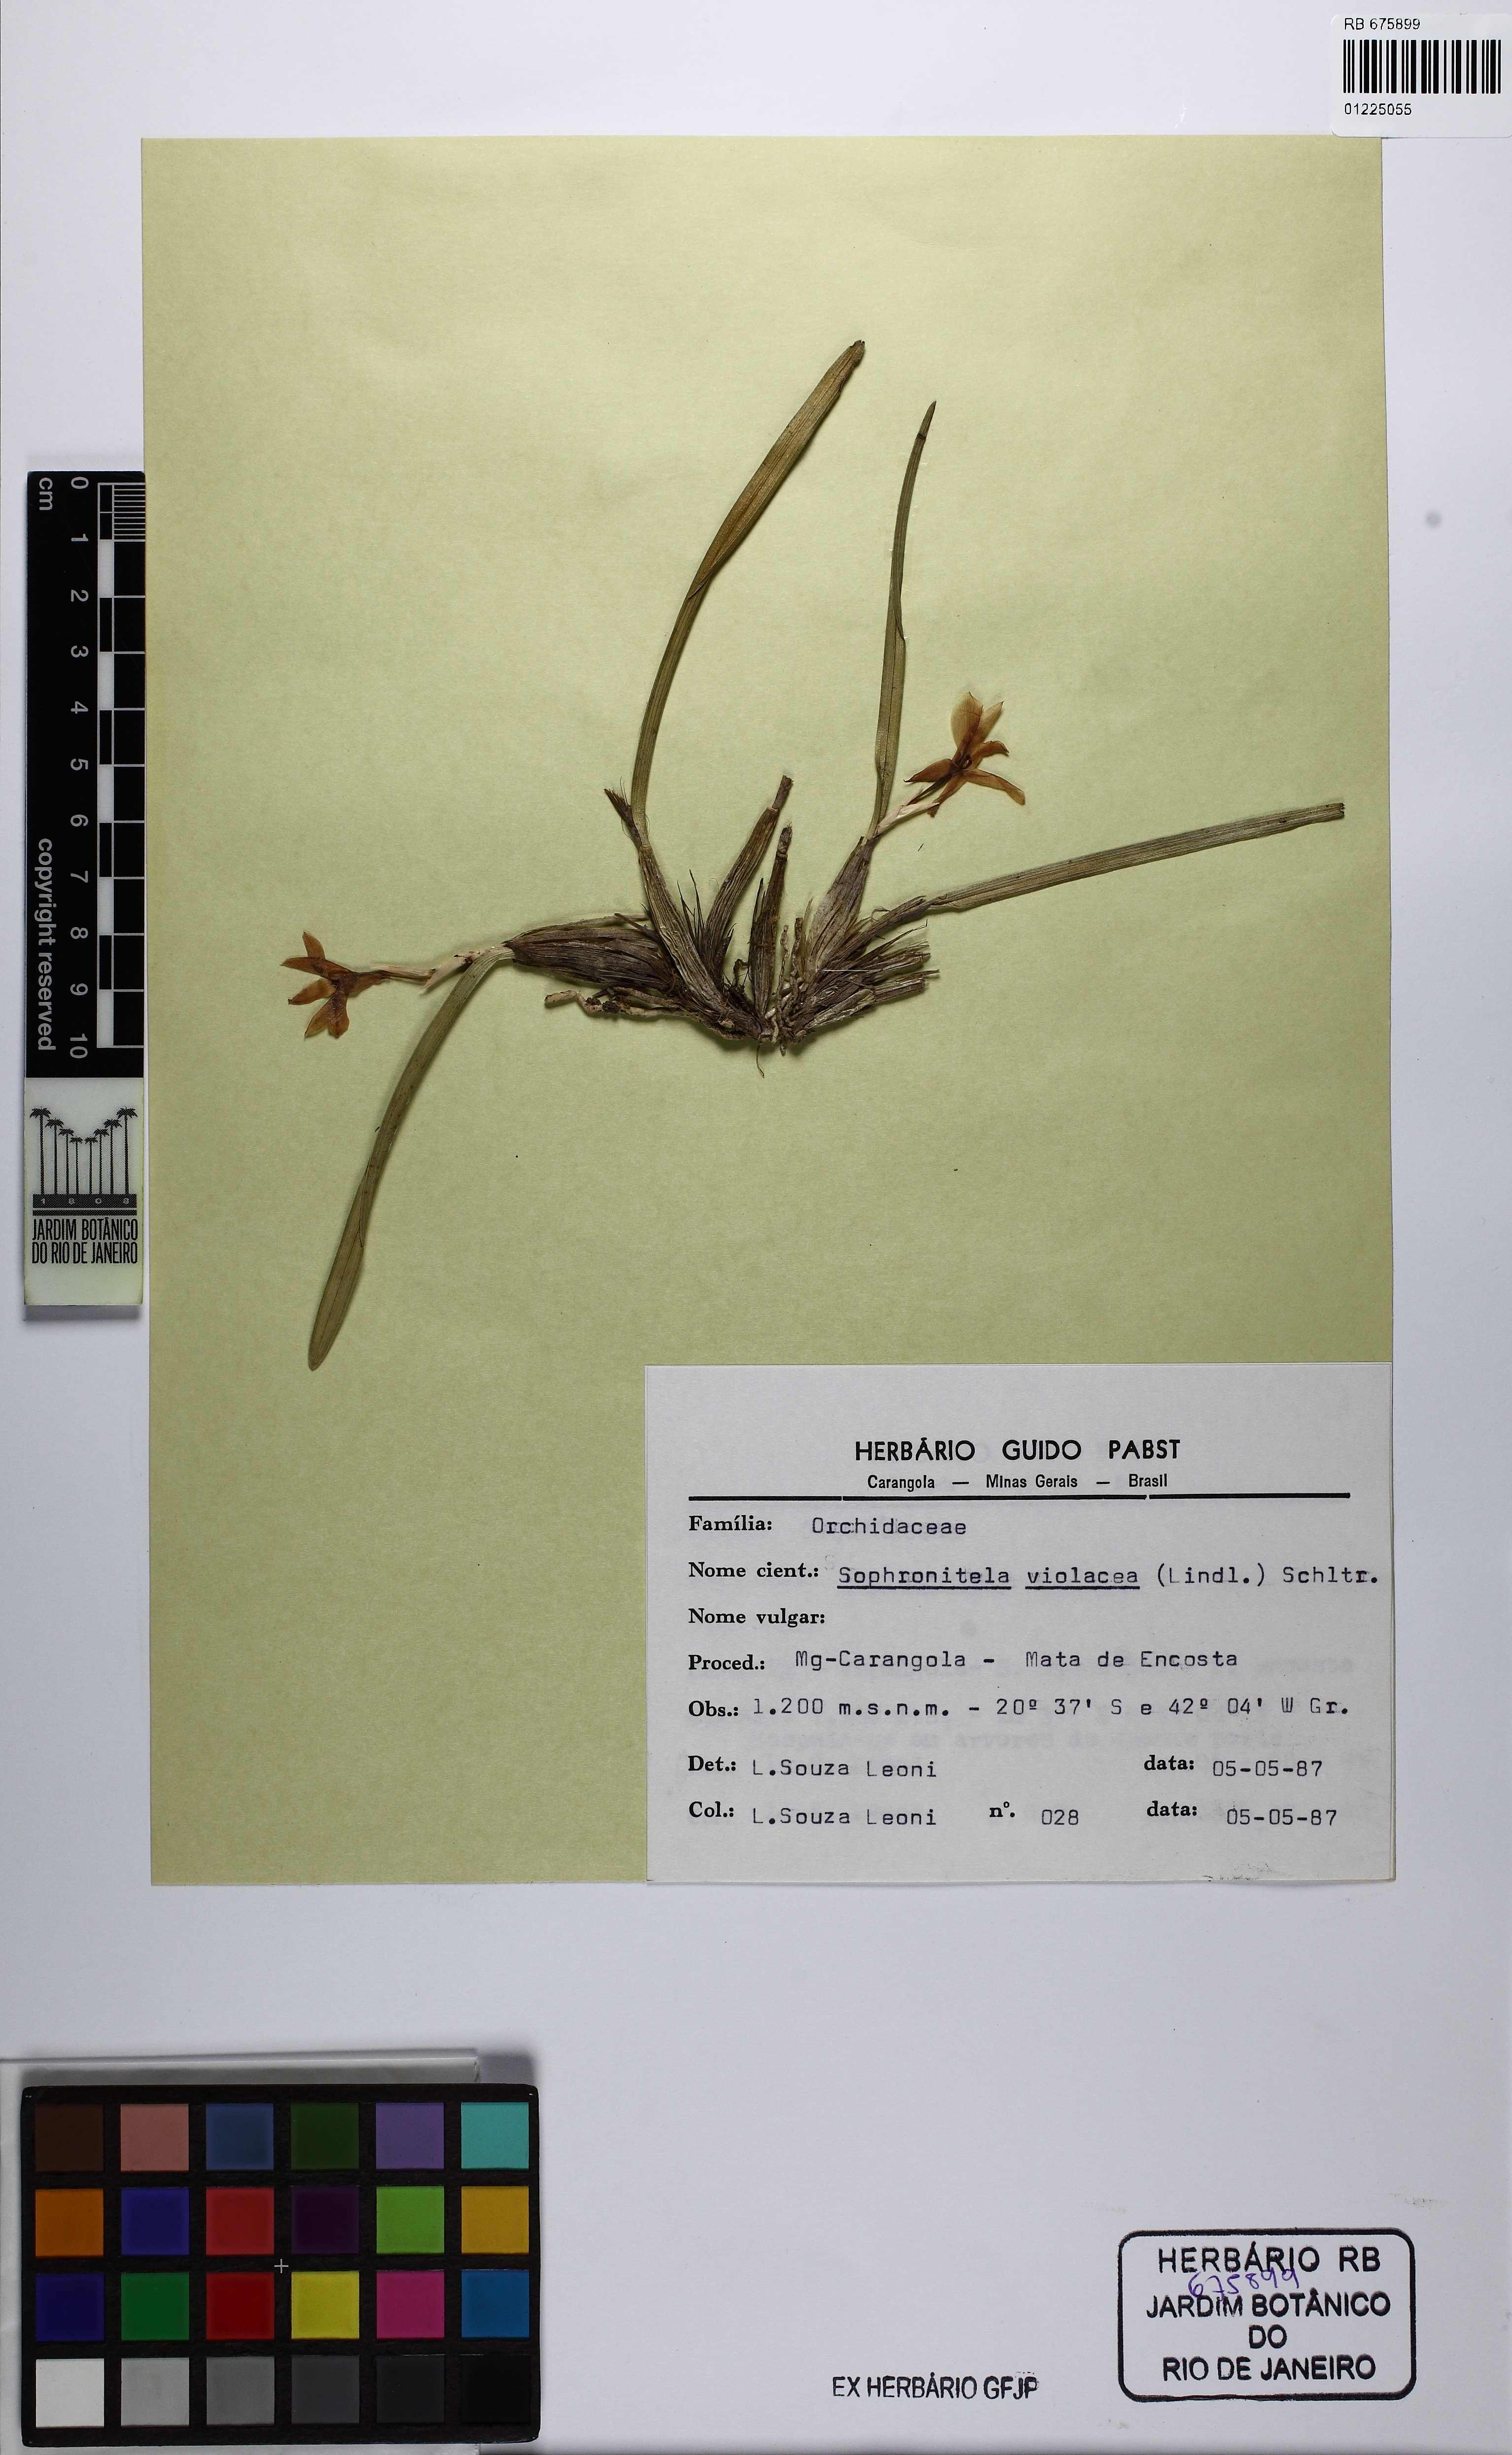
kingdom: Plantae
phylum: Tracheophyta
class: Liliopsida
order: Asparagales
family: Orchidaceae
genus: Isabelia
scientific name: Isabelia violacea
